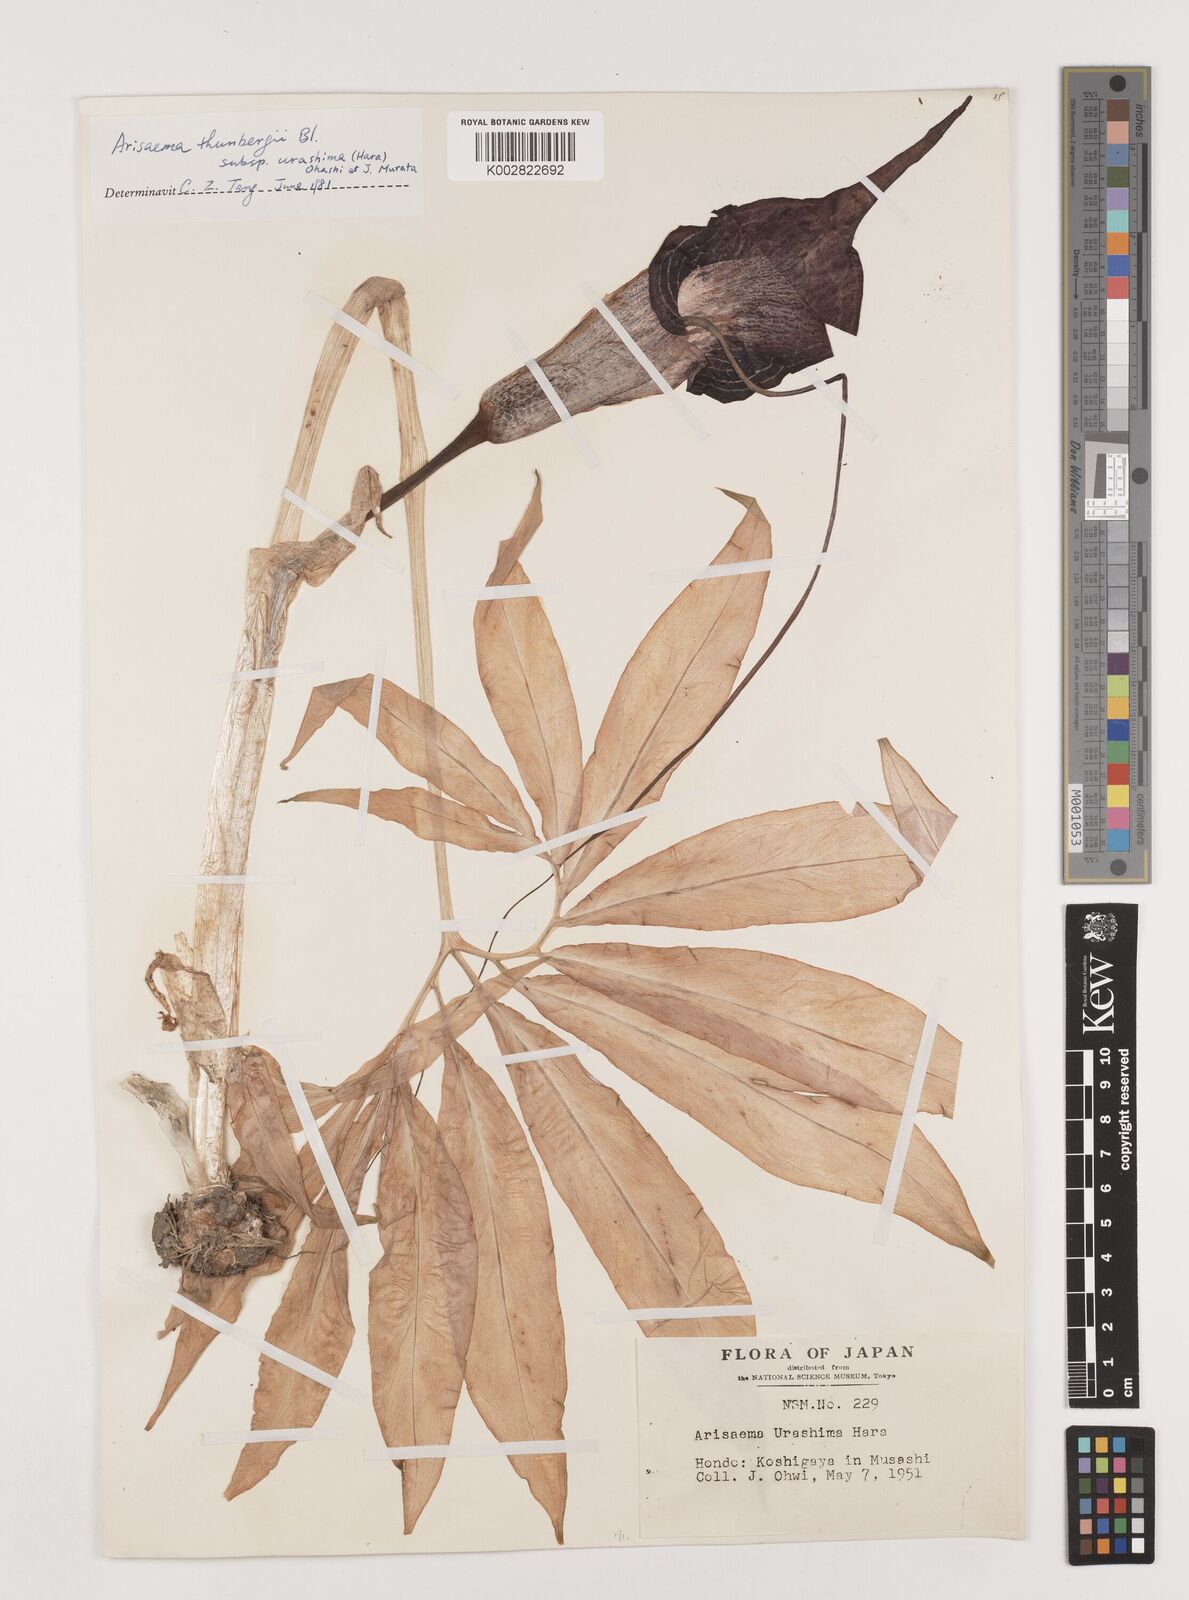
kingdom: Plantae
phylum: Tracheophyta
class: Liliopsida
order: Alismatales
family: Araceae
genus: Arisaema
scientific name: Arisaema thunbergii
